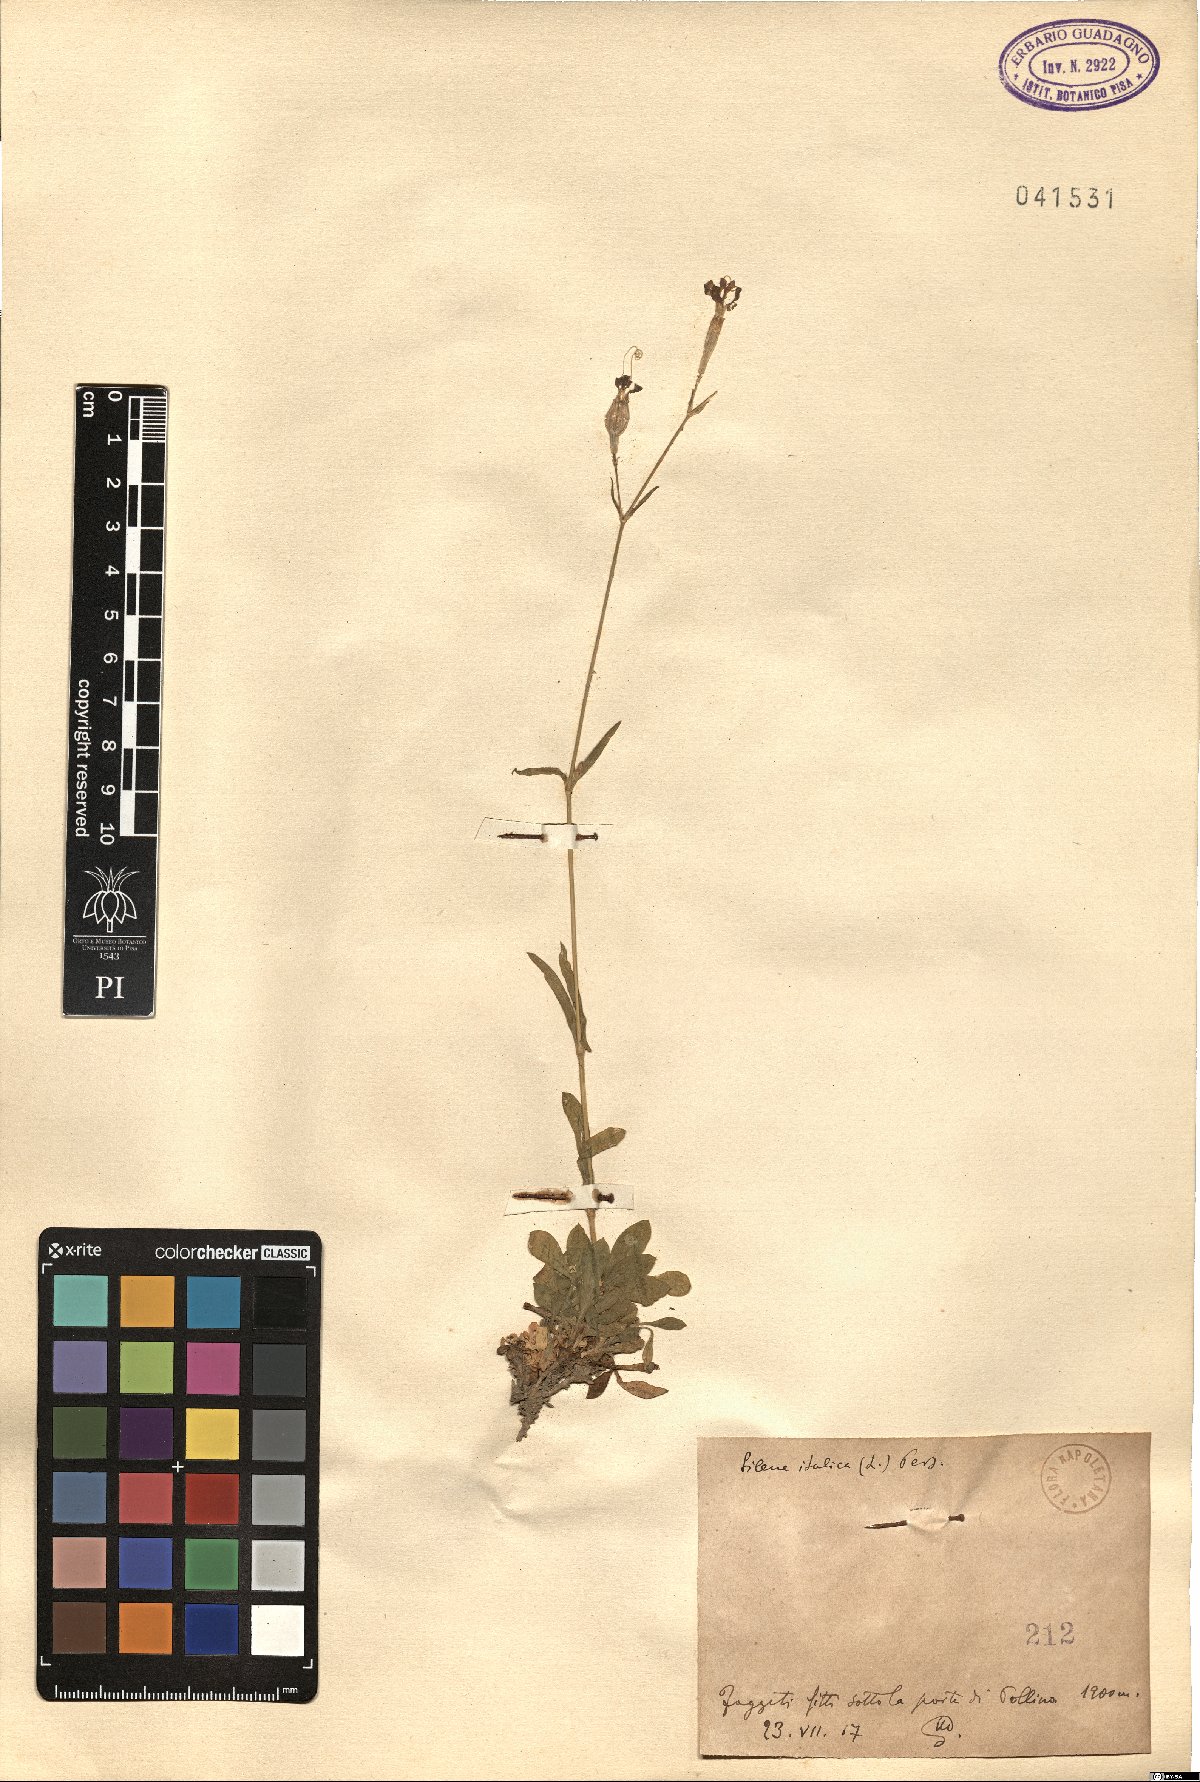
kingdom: Plantae
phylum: Tracheophyta
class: Magnoliopsida
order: Caryophyllales
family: Caryophyllaceae
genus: Silene
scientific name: Silene italica
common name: Italian catchfly
